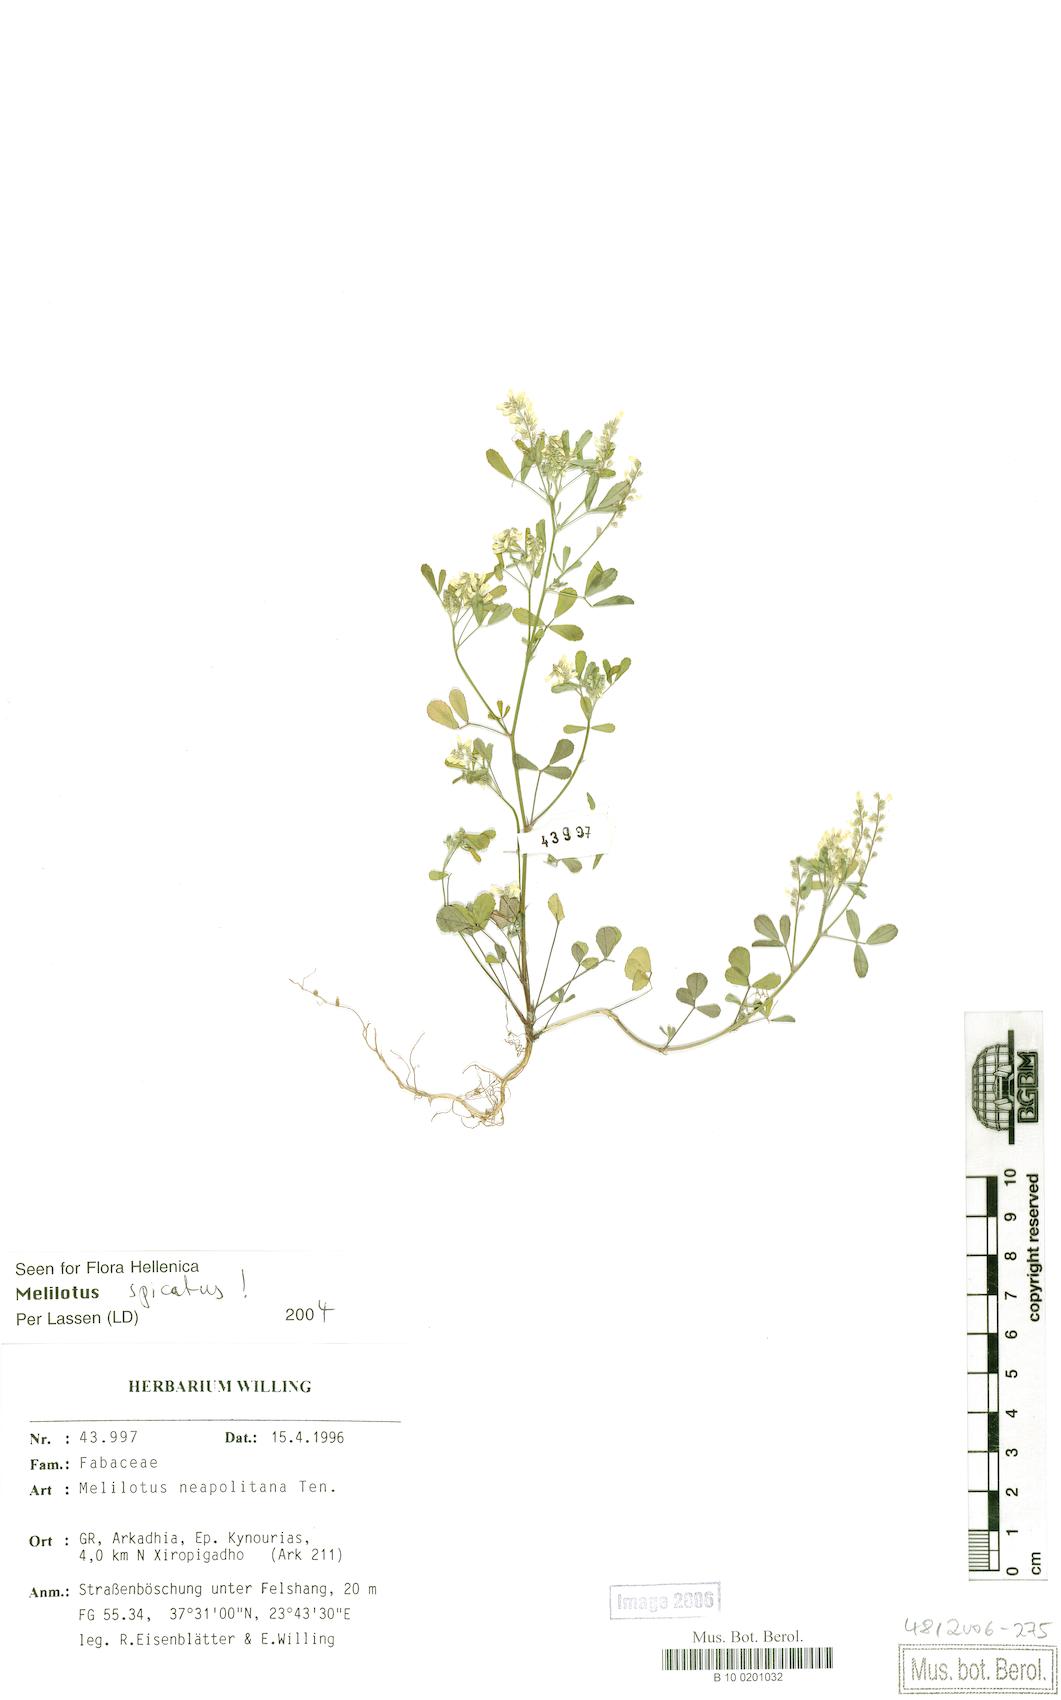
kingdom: Plantae
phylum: Tracheophyta
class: Magnoliopsida
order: Fabales
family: Fabaceae
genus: Melilotus
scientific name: Melilotus neapolitanus
